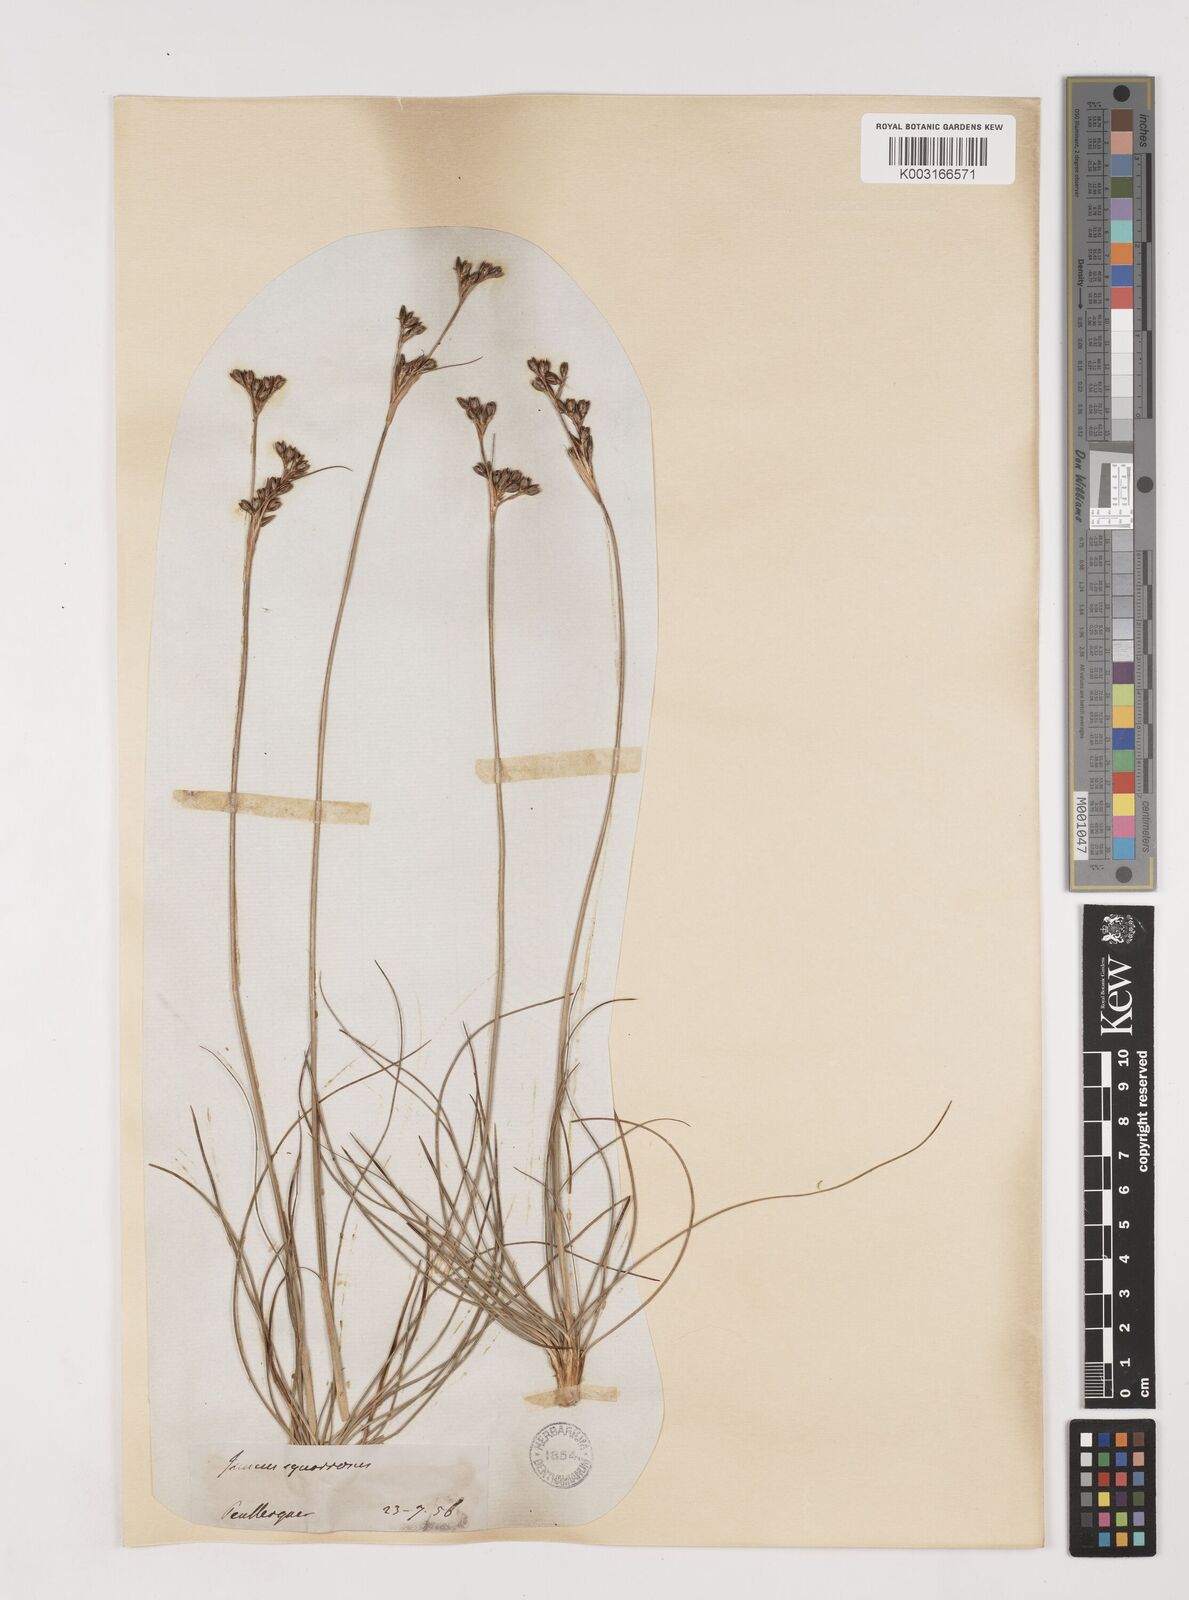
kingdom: Plantae
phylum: Tracheophyta
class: Liliopsida
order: Poales
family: Juncaceae
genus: Juncus
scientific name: Juncus squarrosus
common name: Heath rush
